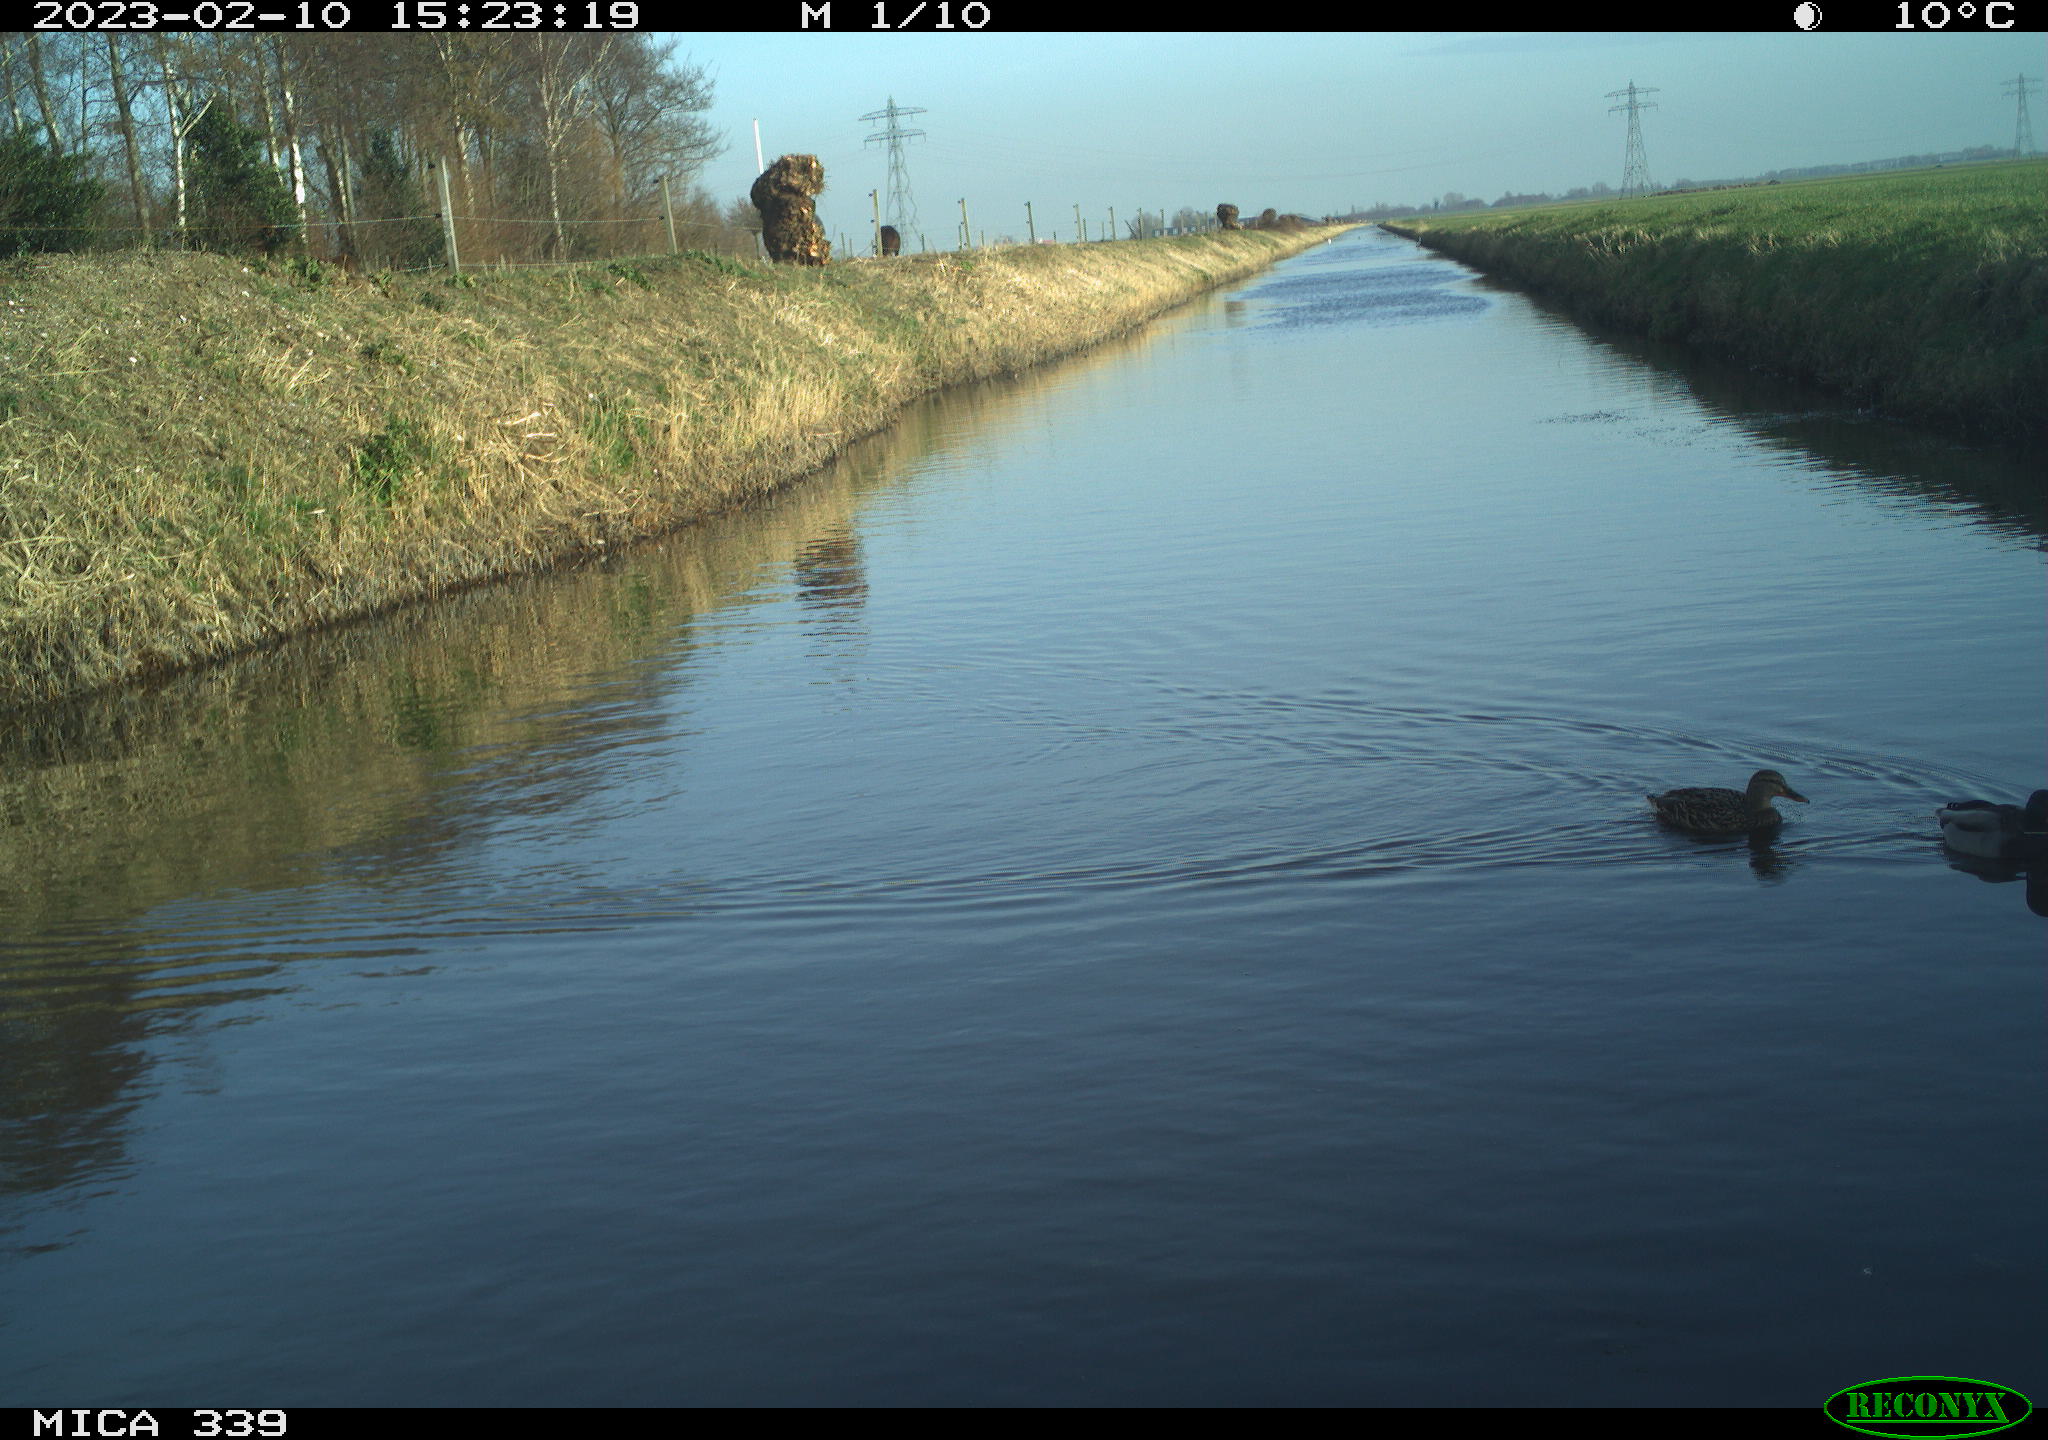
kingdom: Animalia
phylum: Chordata
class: Aves
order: Anseriformes
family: Anatidae
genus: Anas
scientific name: Anas
